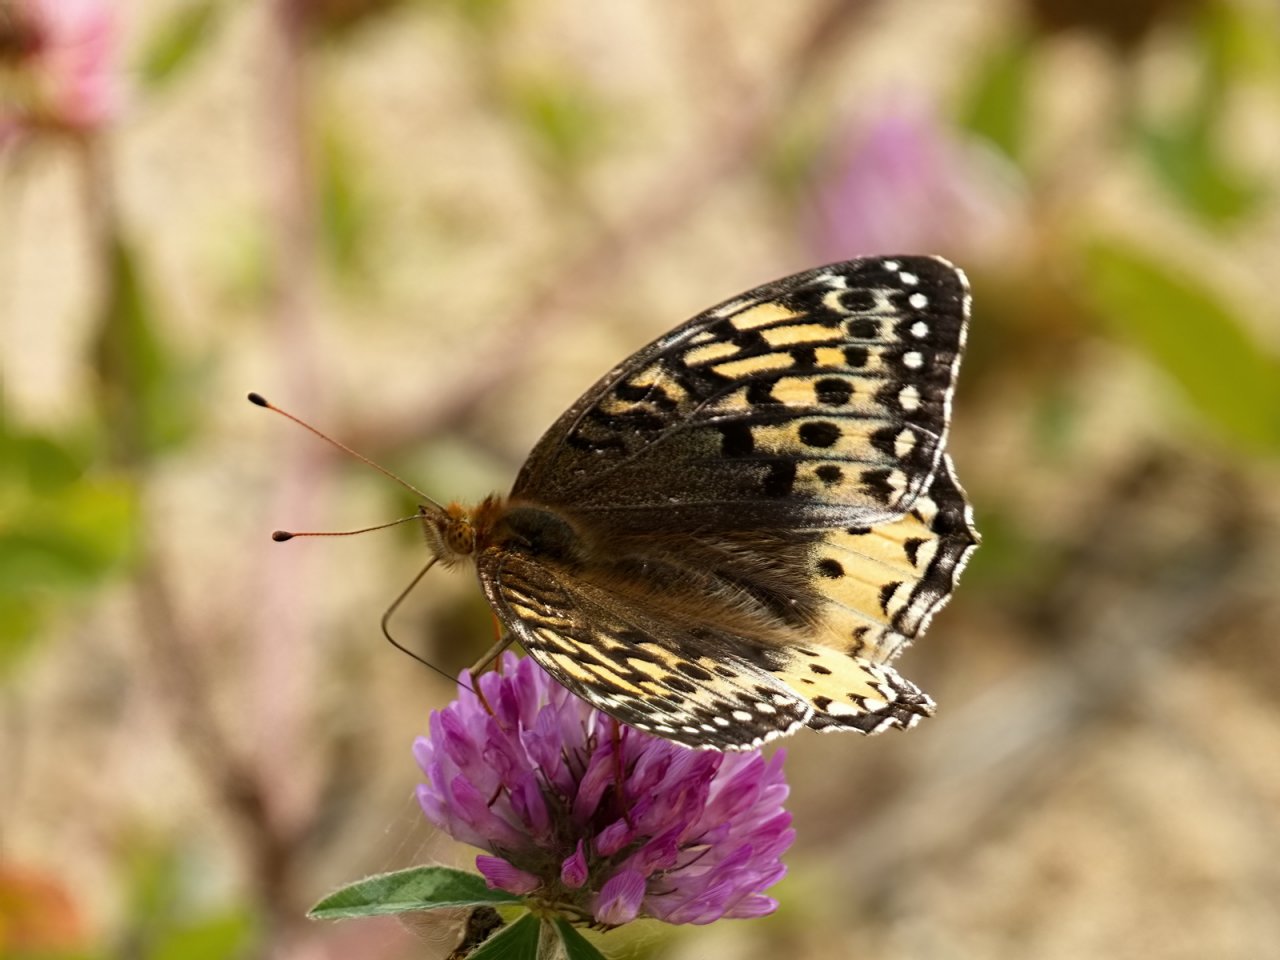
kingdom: Animalia
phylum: Arthropoda
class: Insecta
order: Lepidoptera
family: Nymphalidae
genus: Speyeria
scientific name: Speyeria cybele
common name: Great Spangled Fritillary
